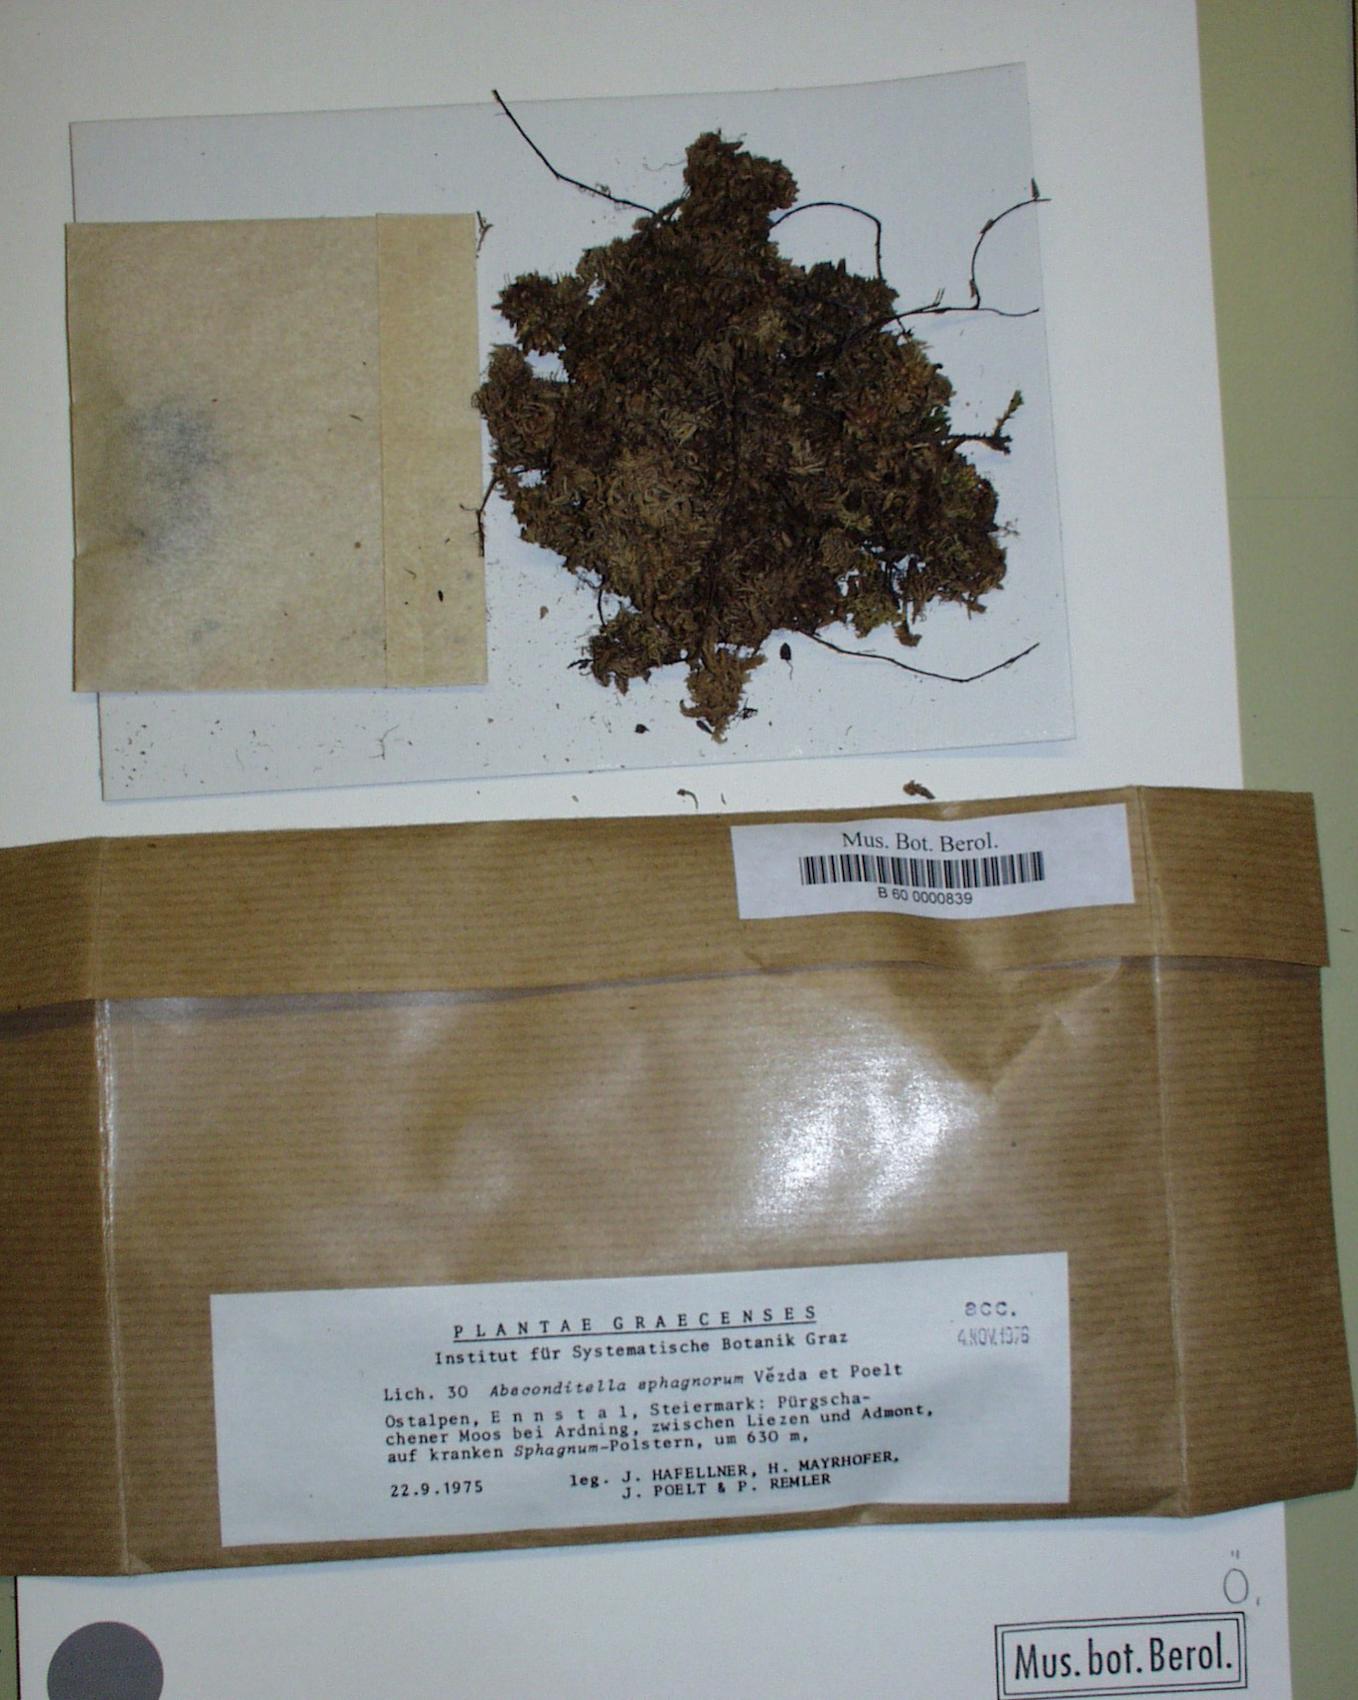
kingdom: Fungi
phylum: Ascomycota
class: Lecanoromycetes
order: Ostropales
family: Stictidaceae
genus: Absconditella
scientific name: Absconditella sphagnorum
